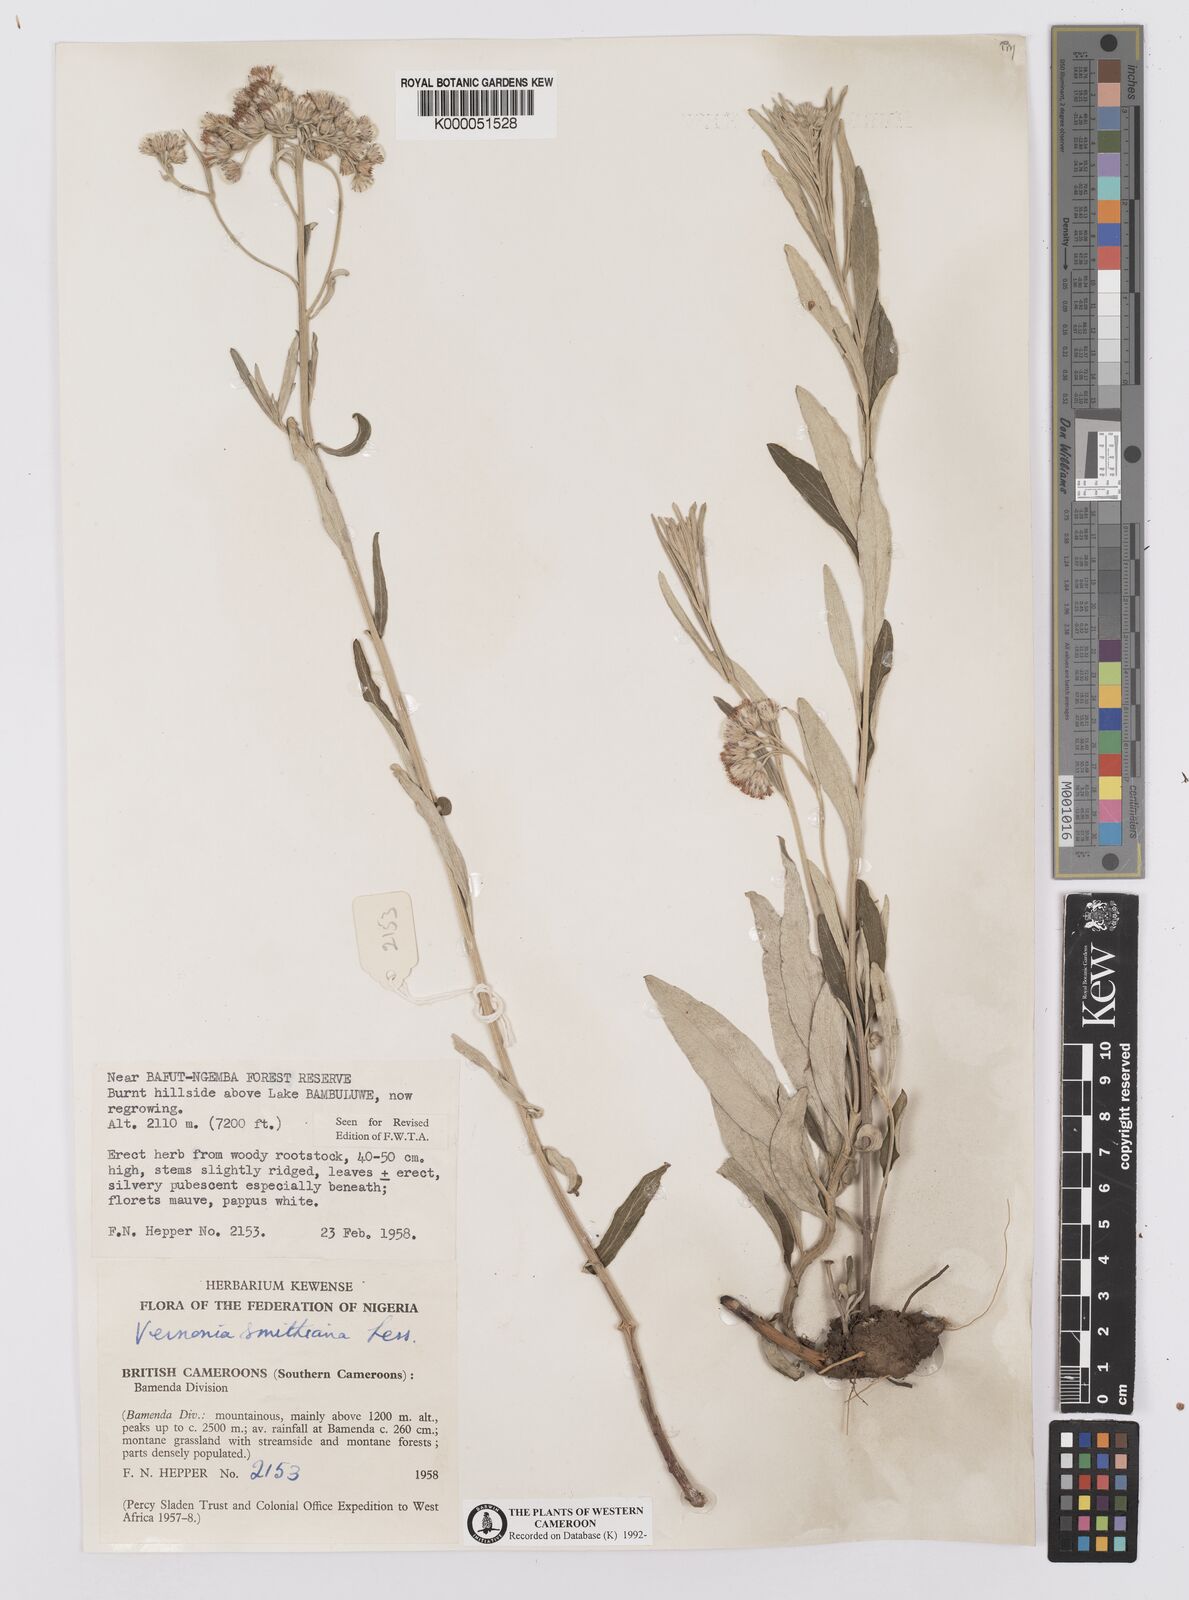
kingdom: Plantae
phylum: Tracheophyta
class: Magnoliopsida
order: Asterales
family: Asteraceae
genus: Hilliardiella
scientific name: Hilliardiella smithiana
